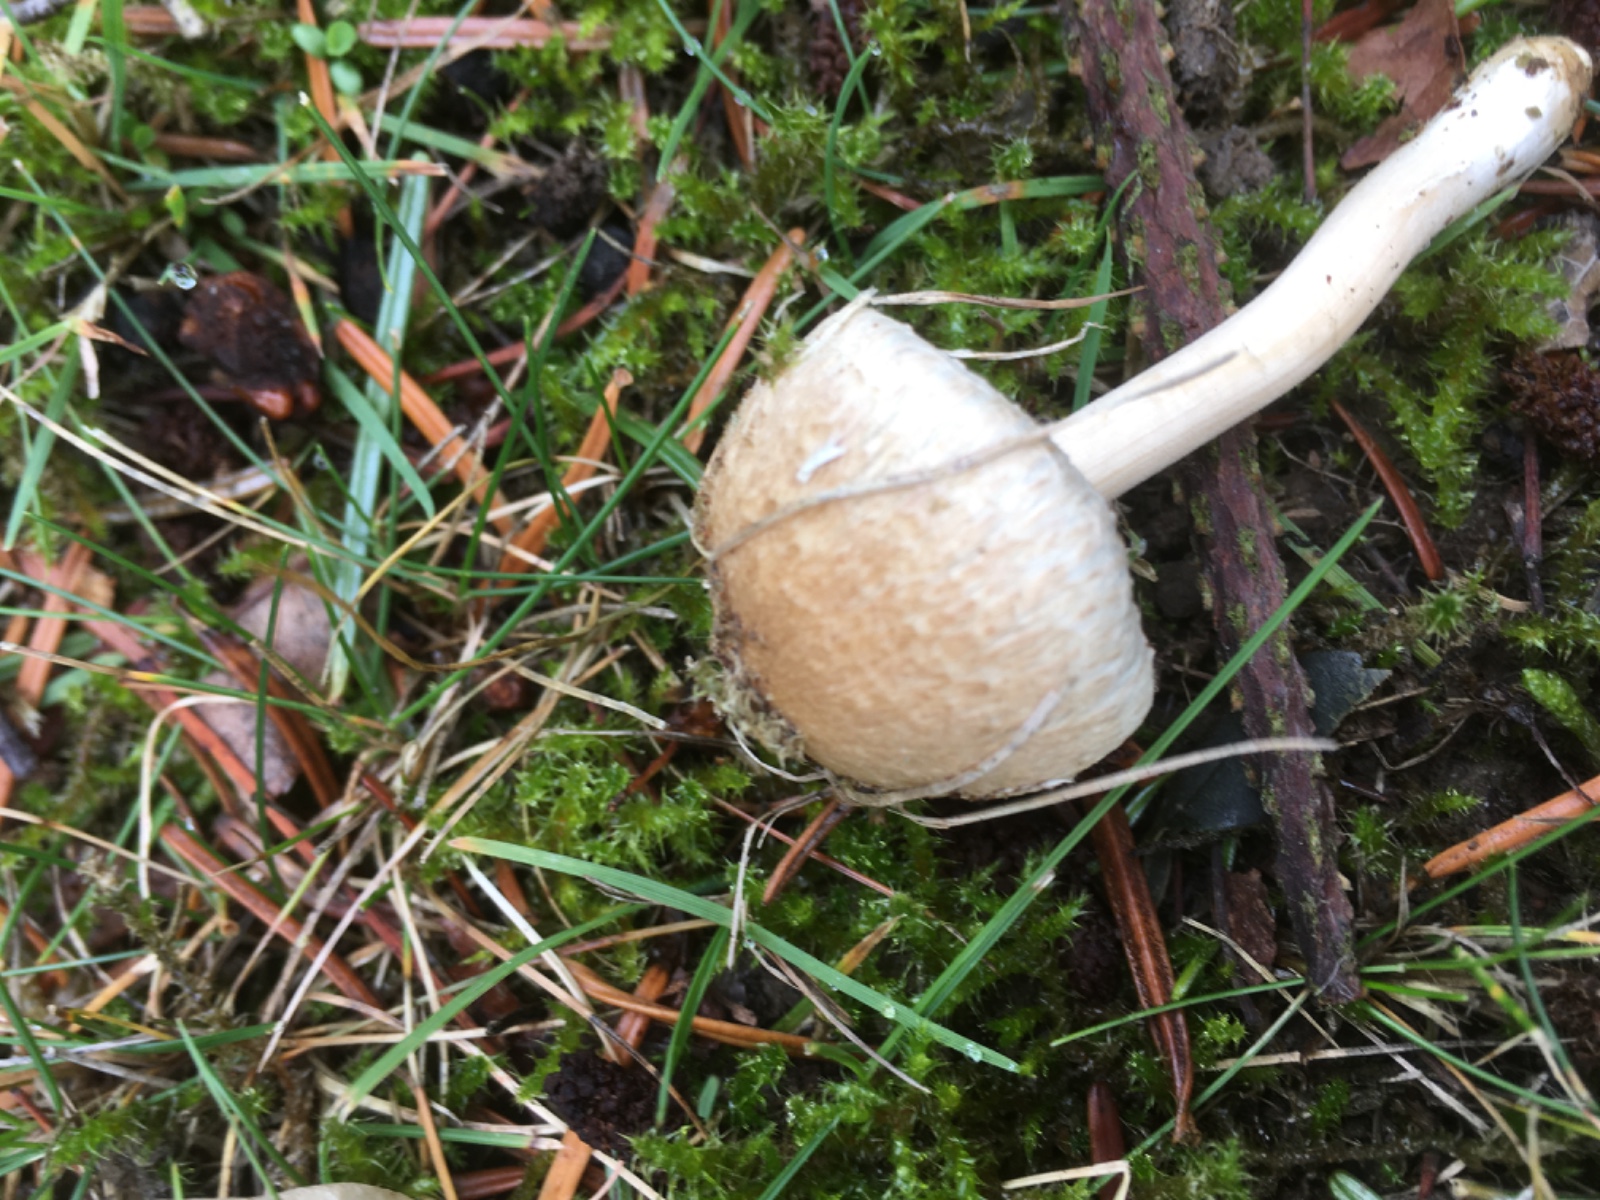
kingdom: Fungi
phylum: Basidiomycota
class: Agaricomycetes
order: Agaricales
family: Inocybaceae
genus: Inocybe
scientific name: Inocybe sindonia
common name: bleg trævlhat
